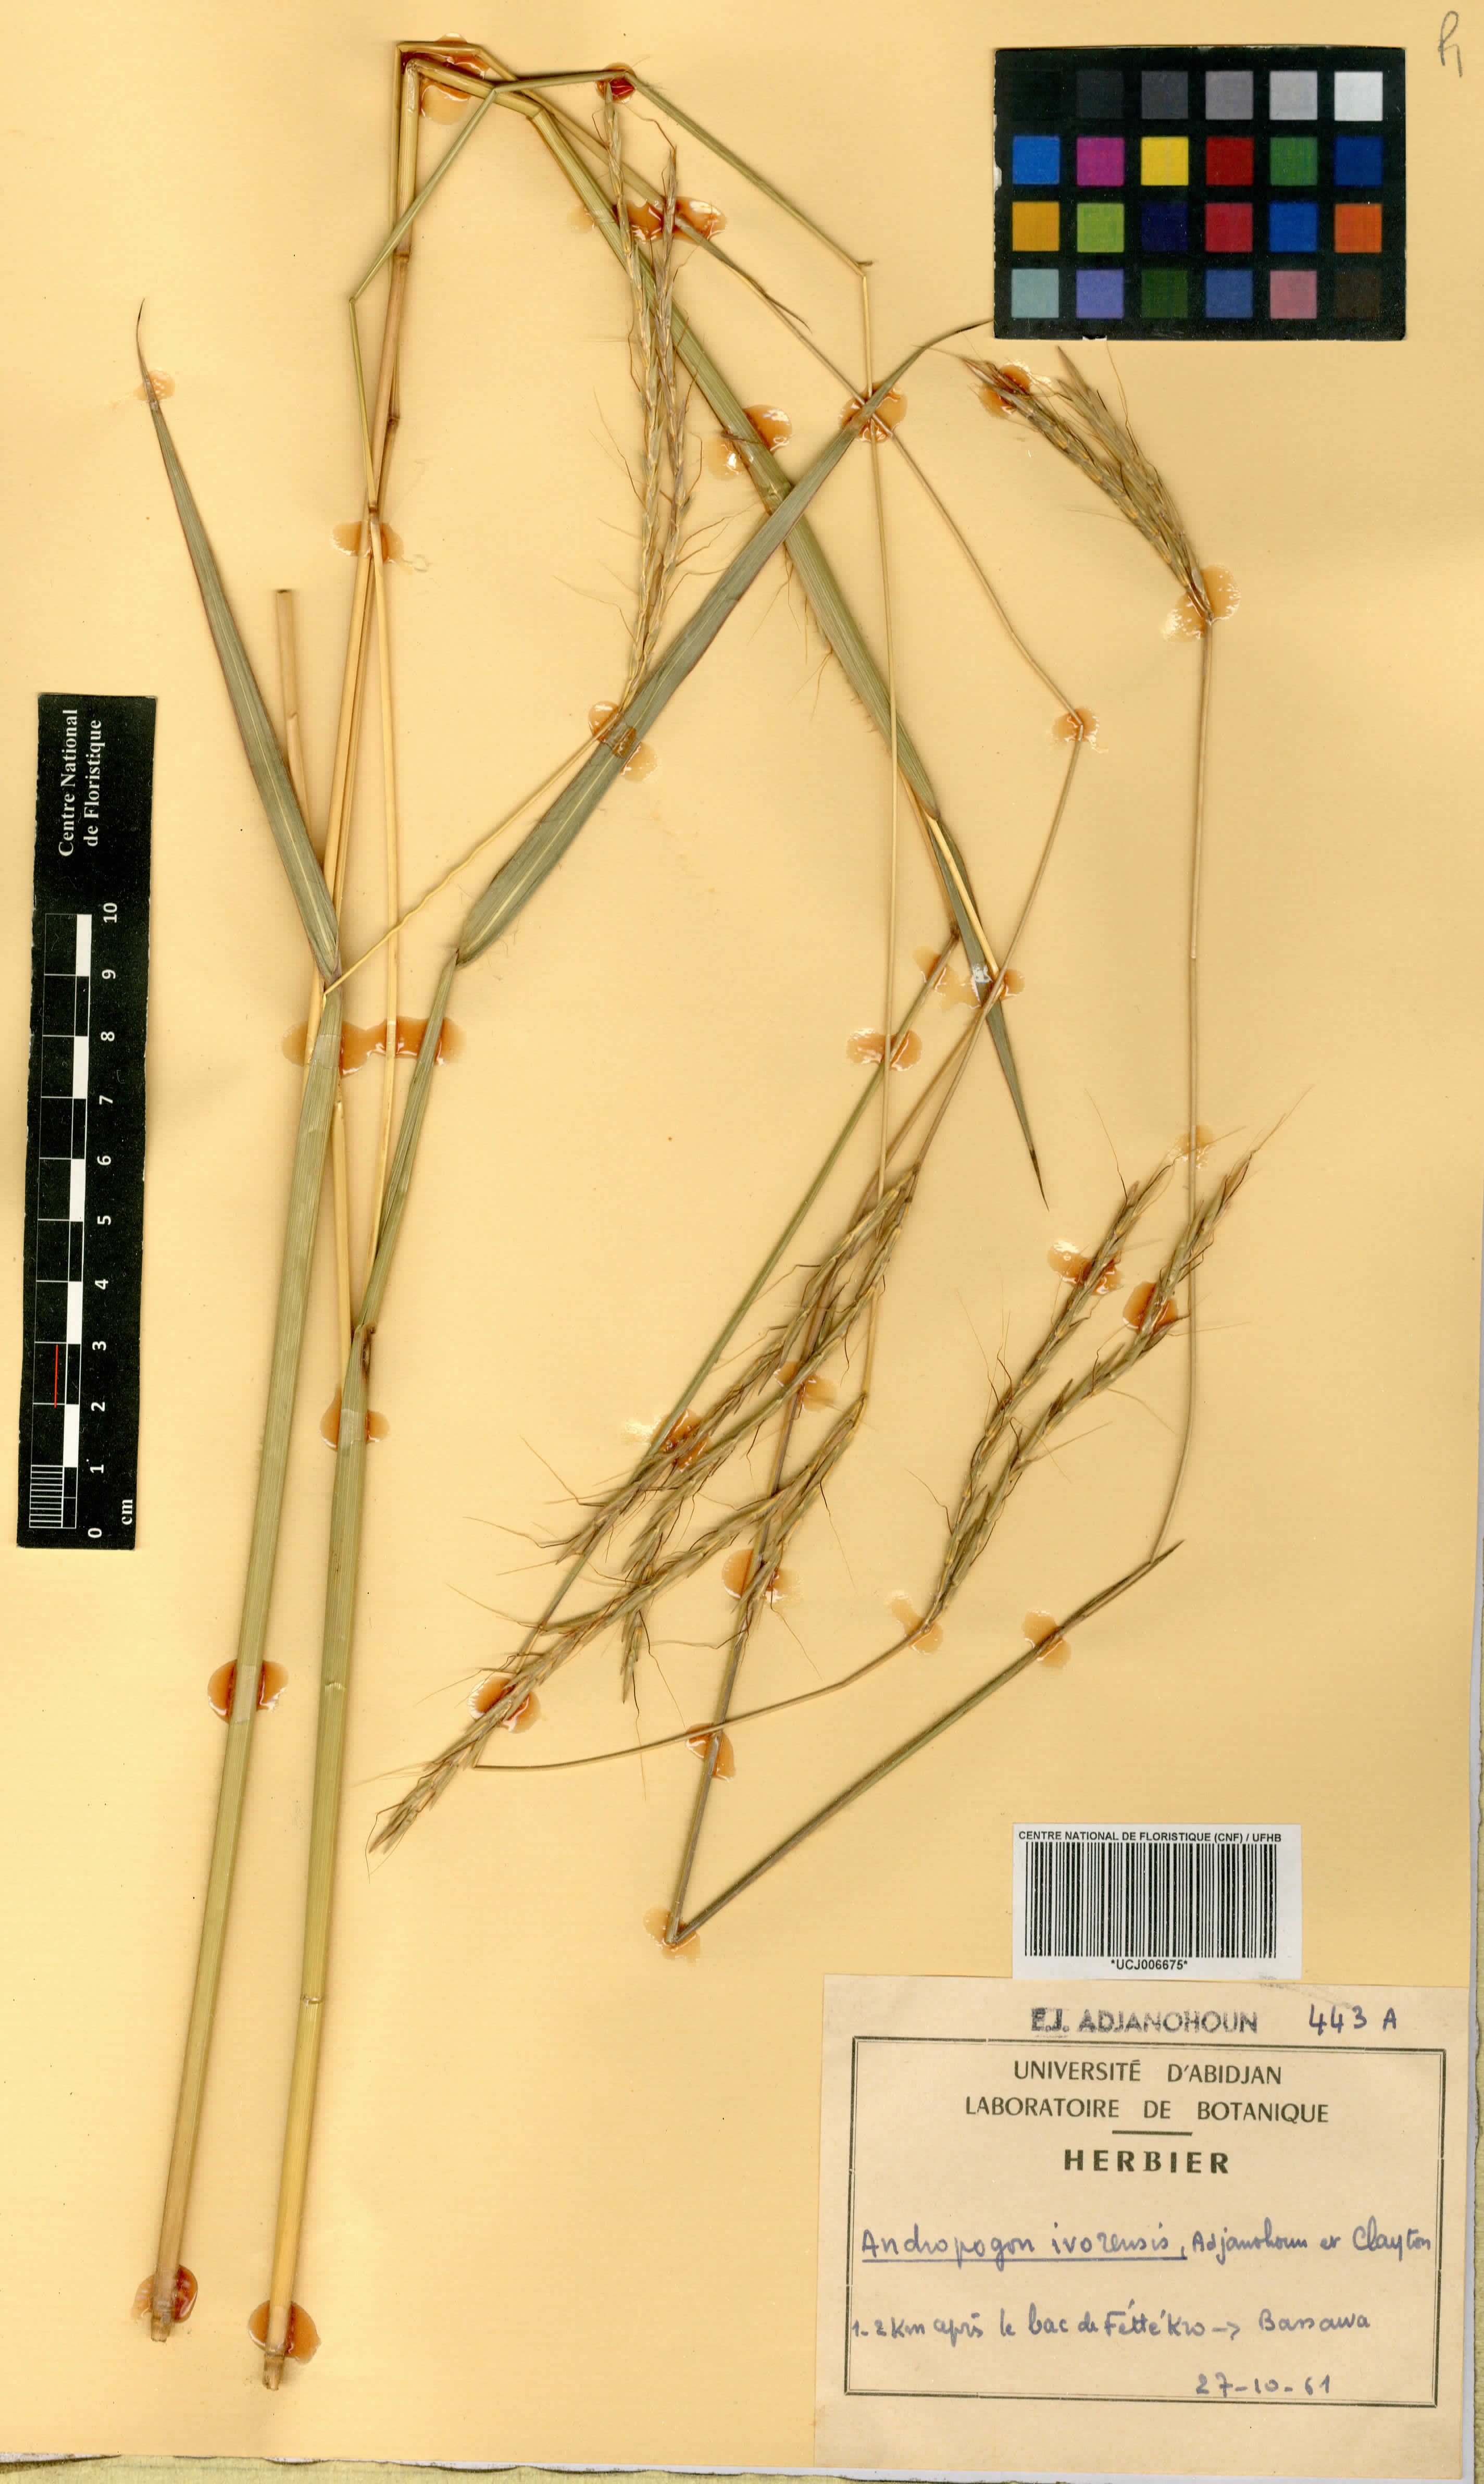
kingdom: Plantae
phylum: Tracheophyta
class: Liliopsida
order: Poales
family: Poaceae
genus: Andropogon
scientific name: Andropogon ivorensis
